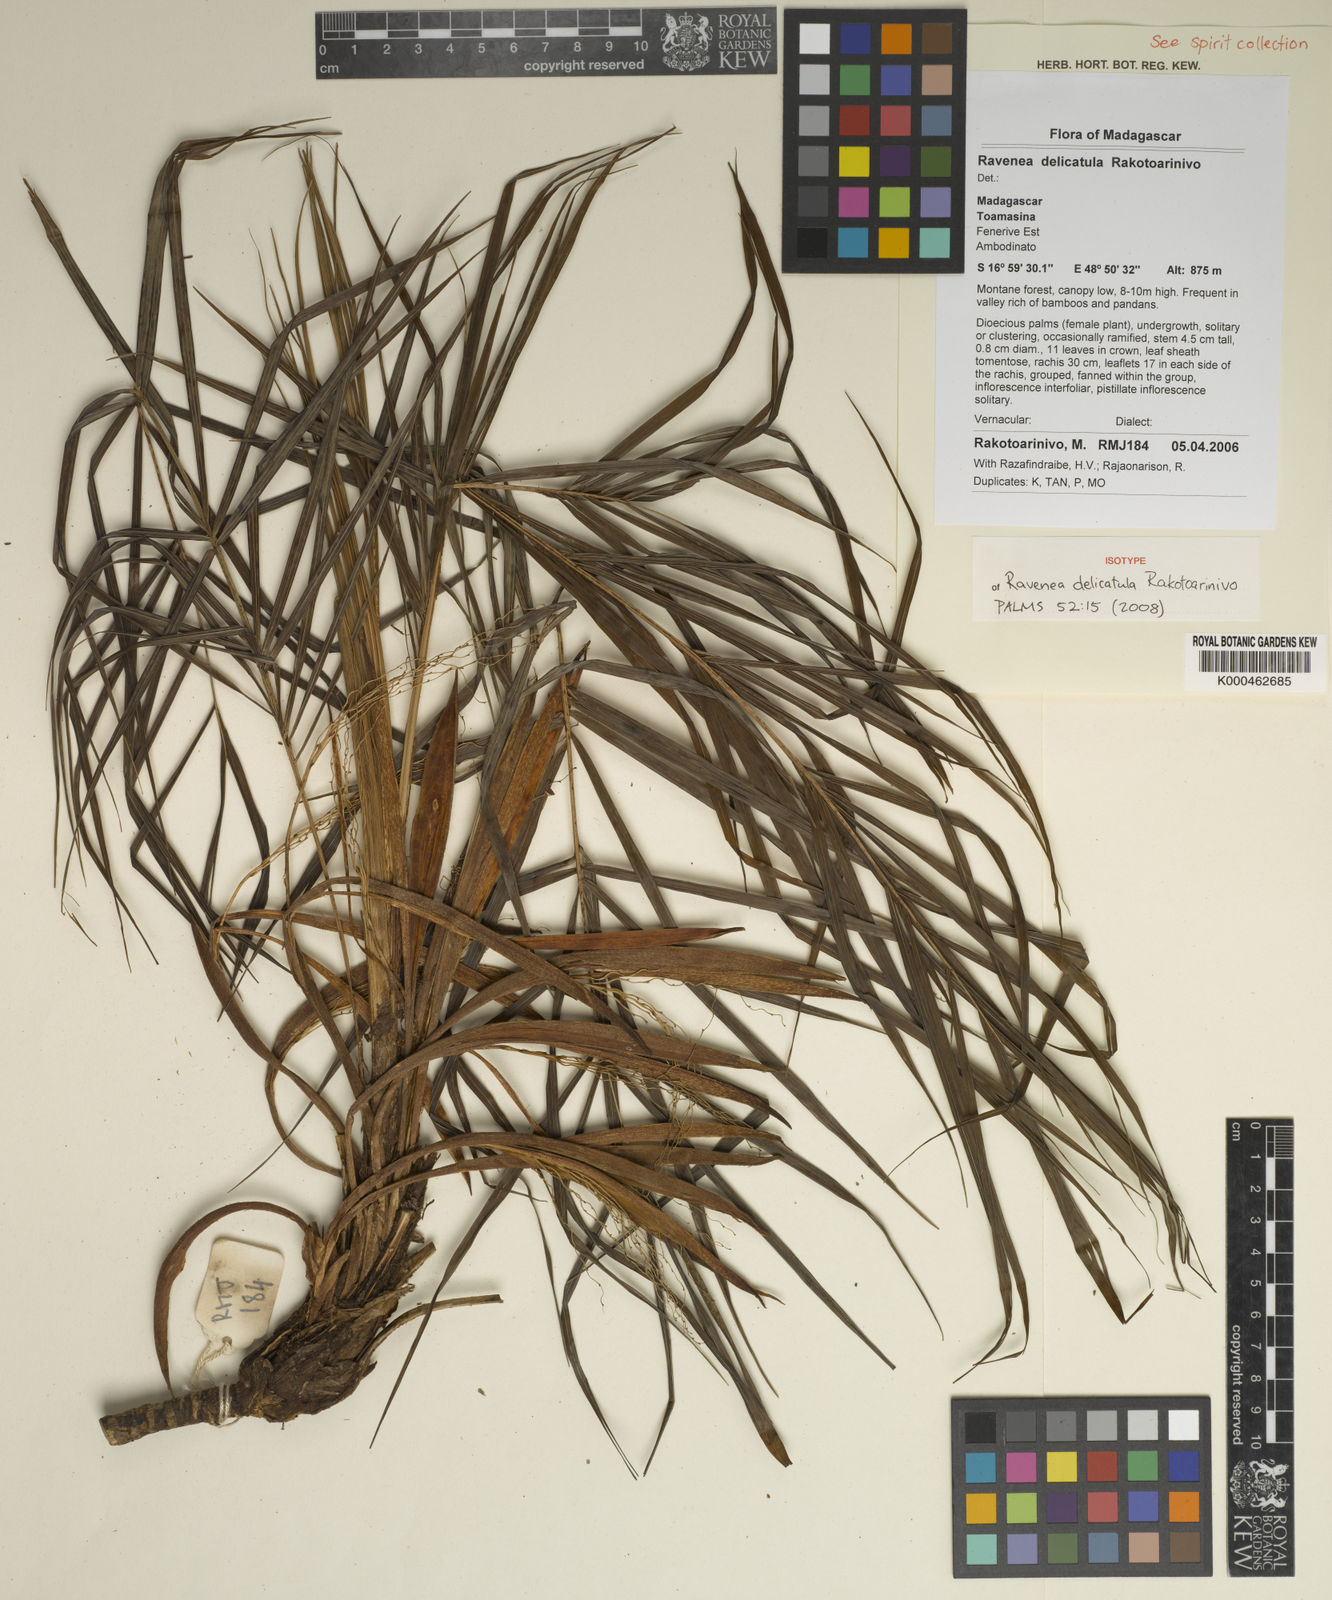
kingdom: Plantae
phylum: Tracheophyta
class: Liliopsida
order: Arecales
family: Arecaceae
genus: Ravenea
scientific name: Ravenea delicatula
